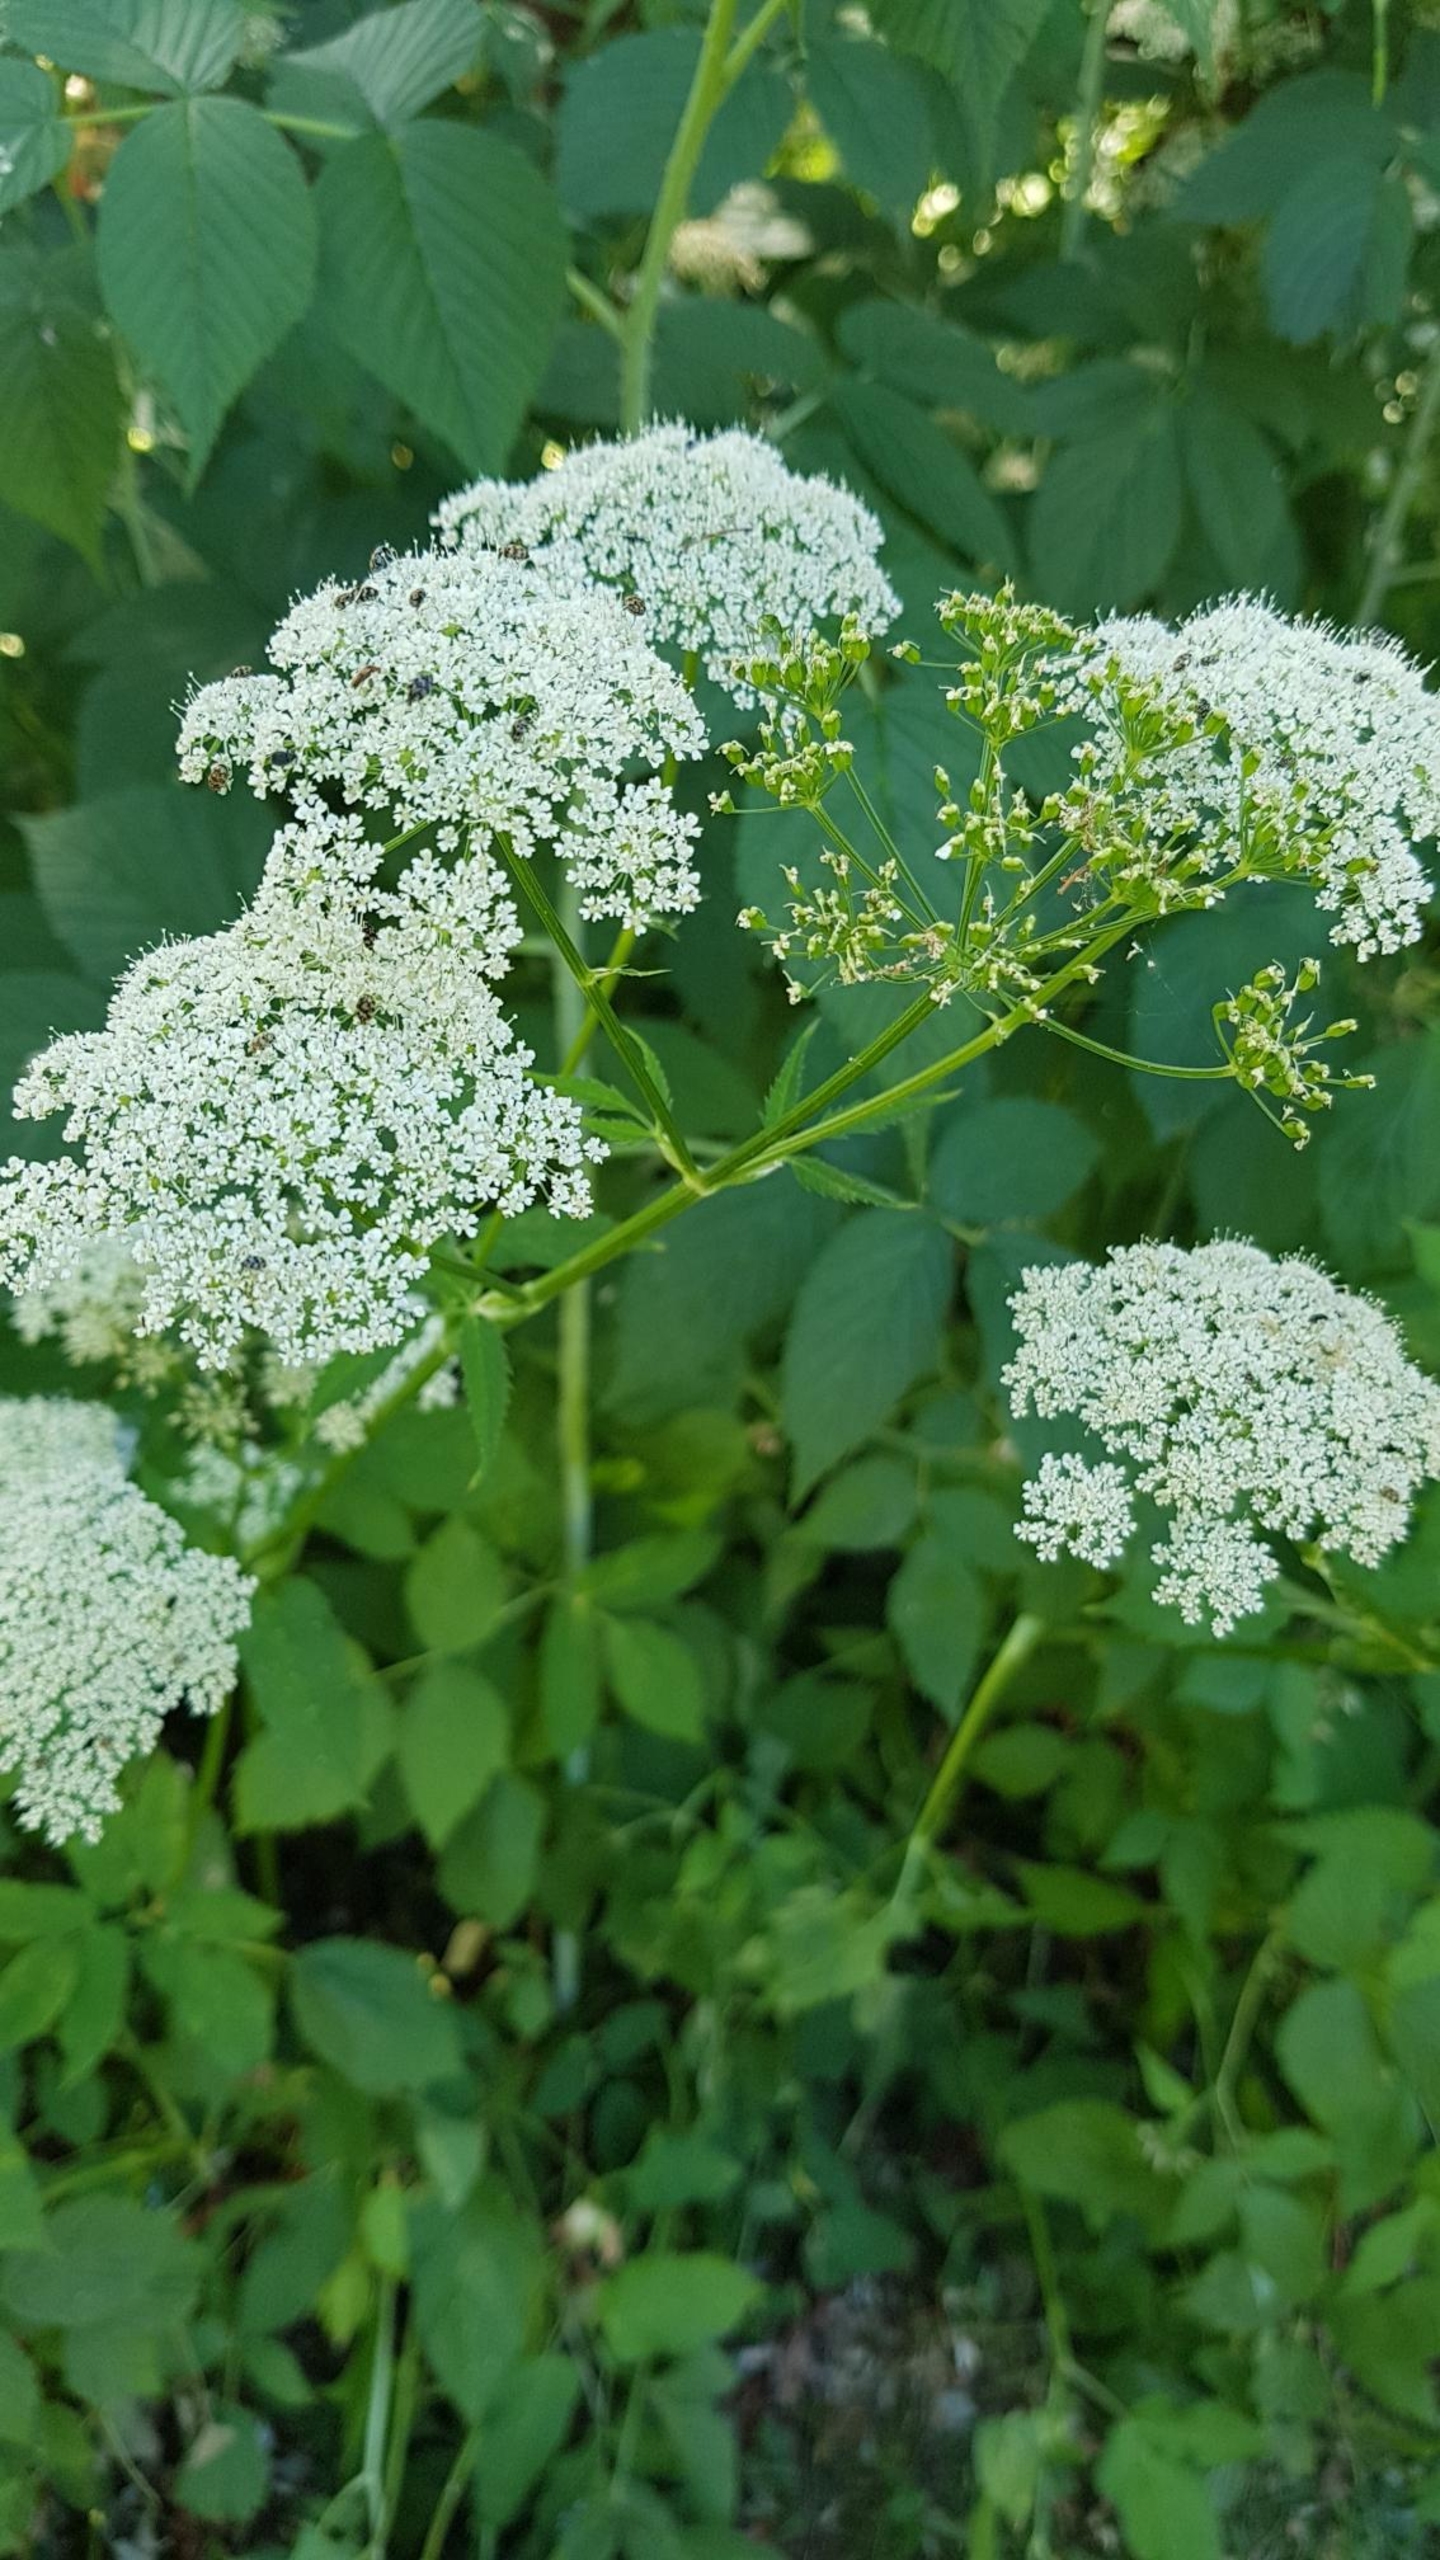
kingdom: Plantae
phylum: Tracheophyta
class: Magnoliopsida
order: Apiales
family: Apiaceae
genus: Aegopodium
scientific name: Aegopodium podagraria
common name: Skvalderkål
